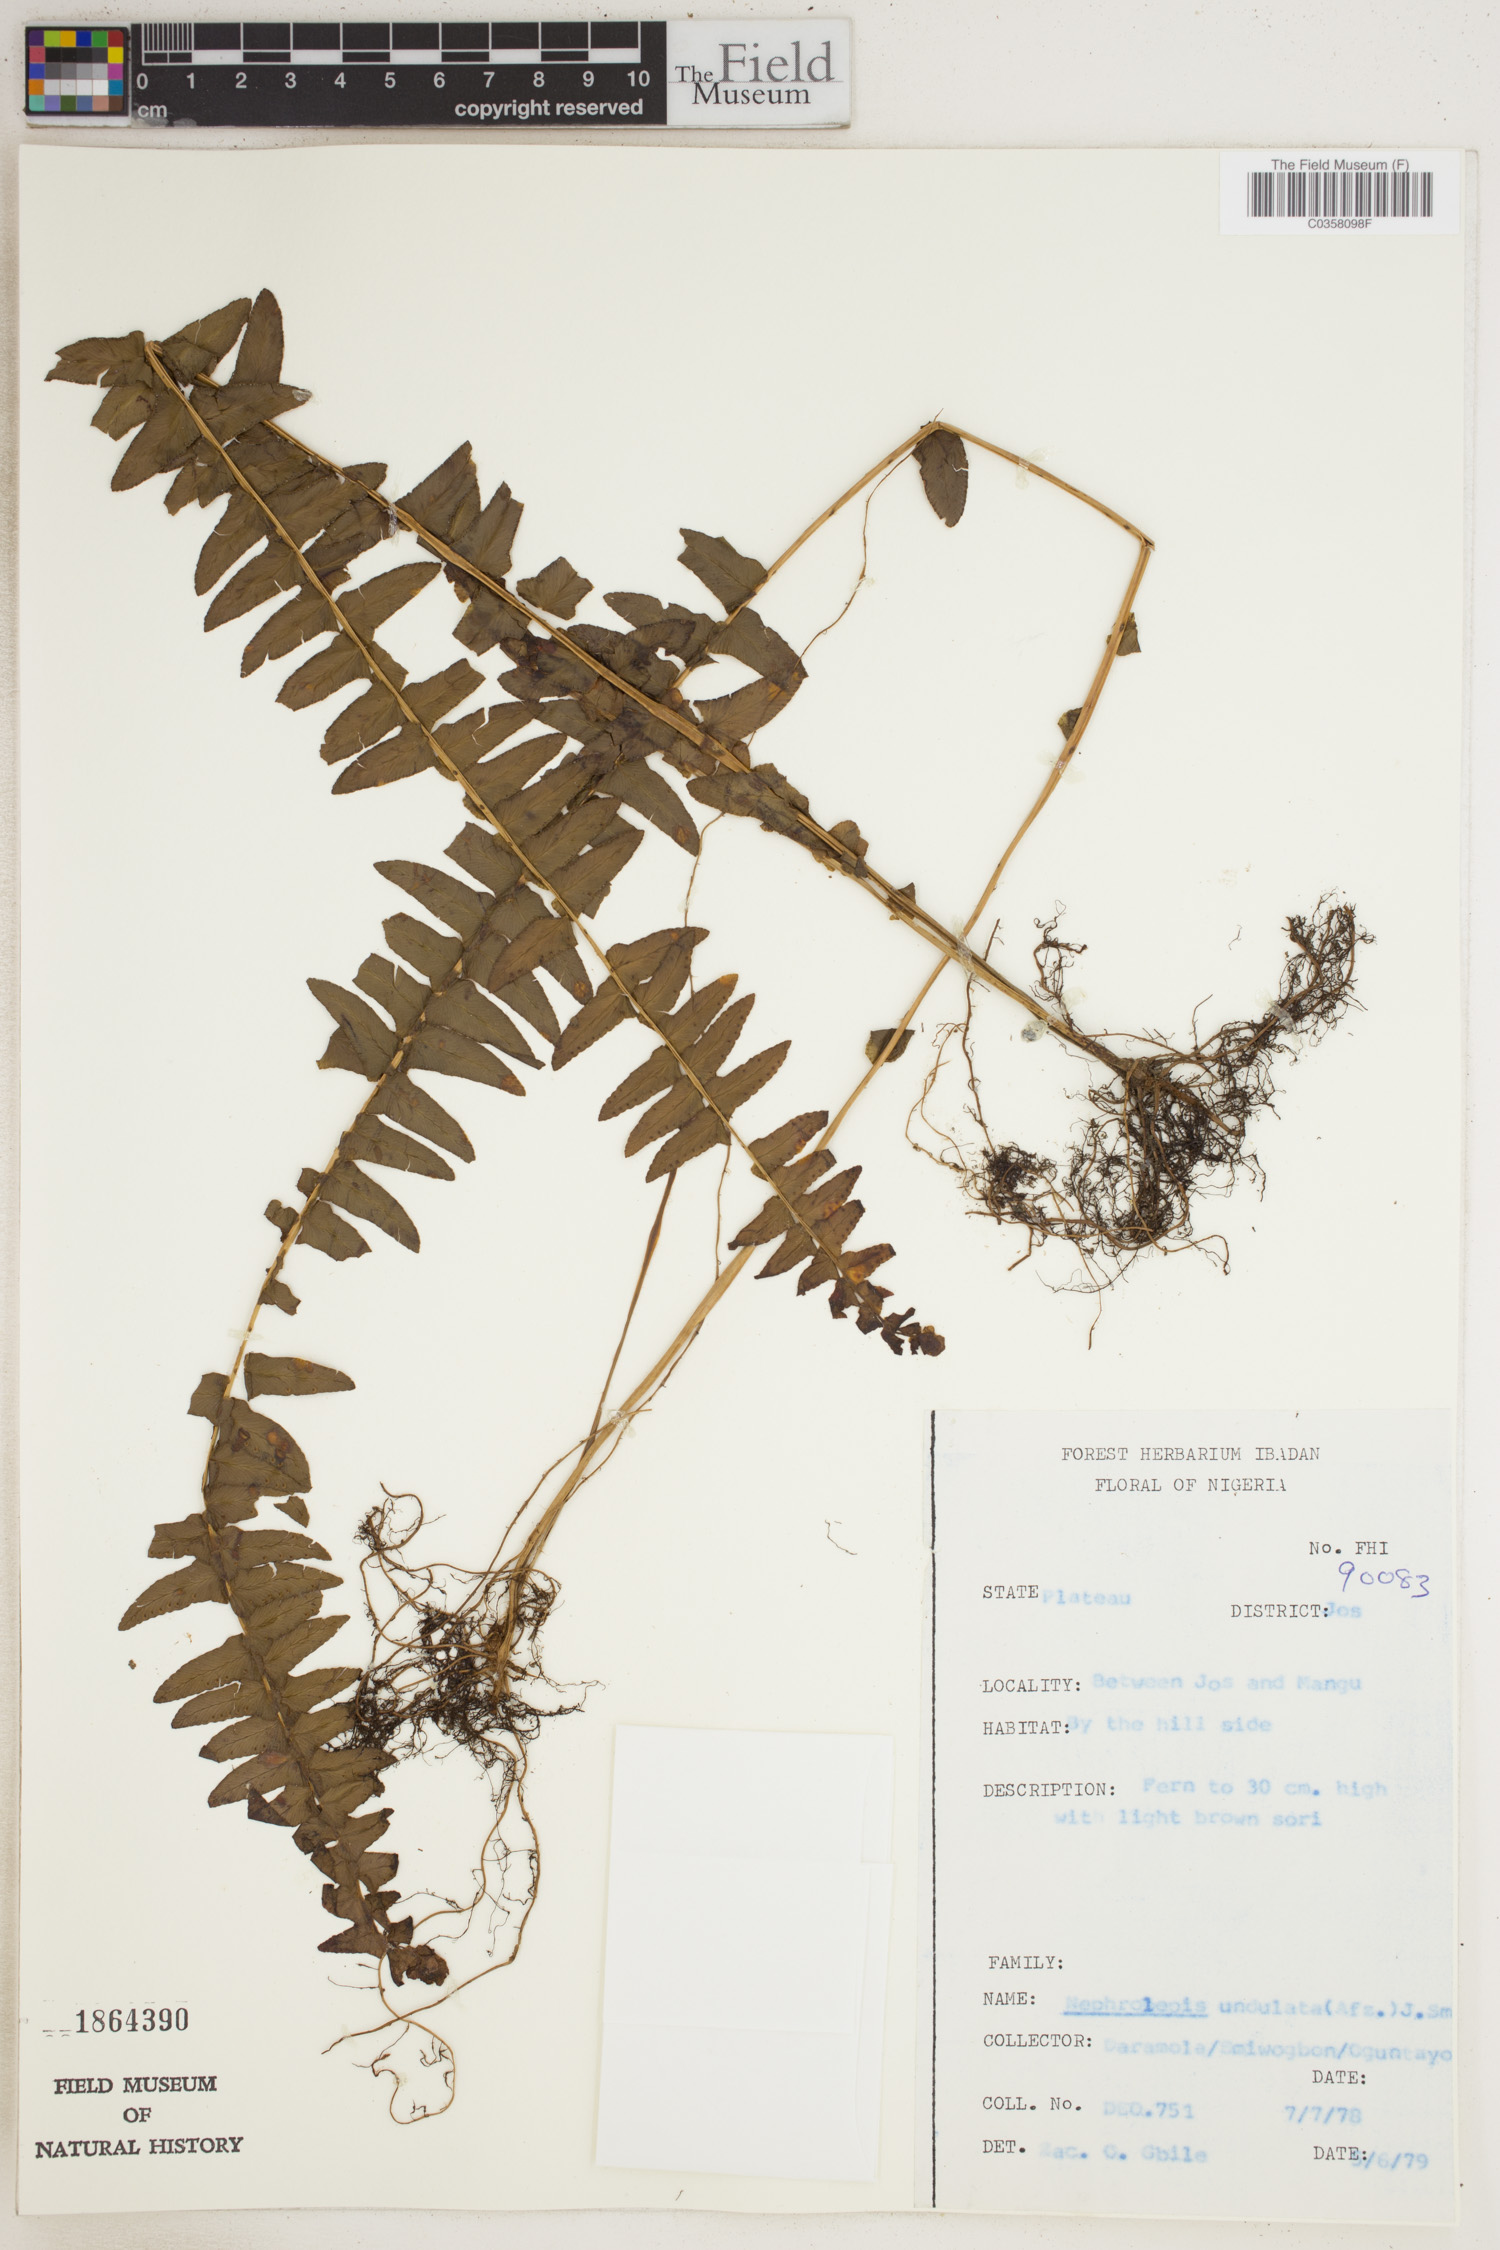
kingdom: Plantae
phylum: Tracheophyta
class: Polypodiopsida
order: Polypodiales
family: Nephrolepidaceae
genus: Nephrolepis
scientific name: Nephrolepis undulata
